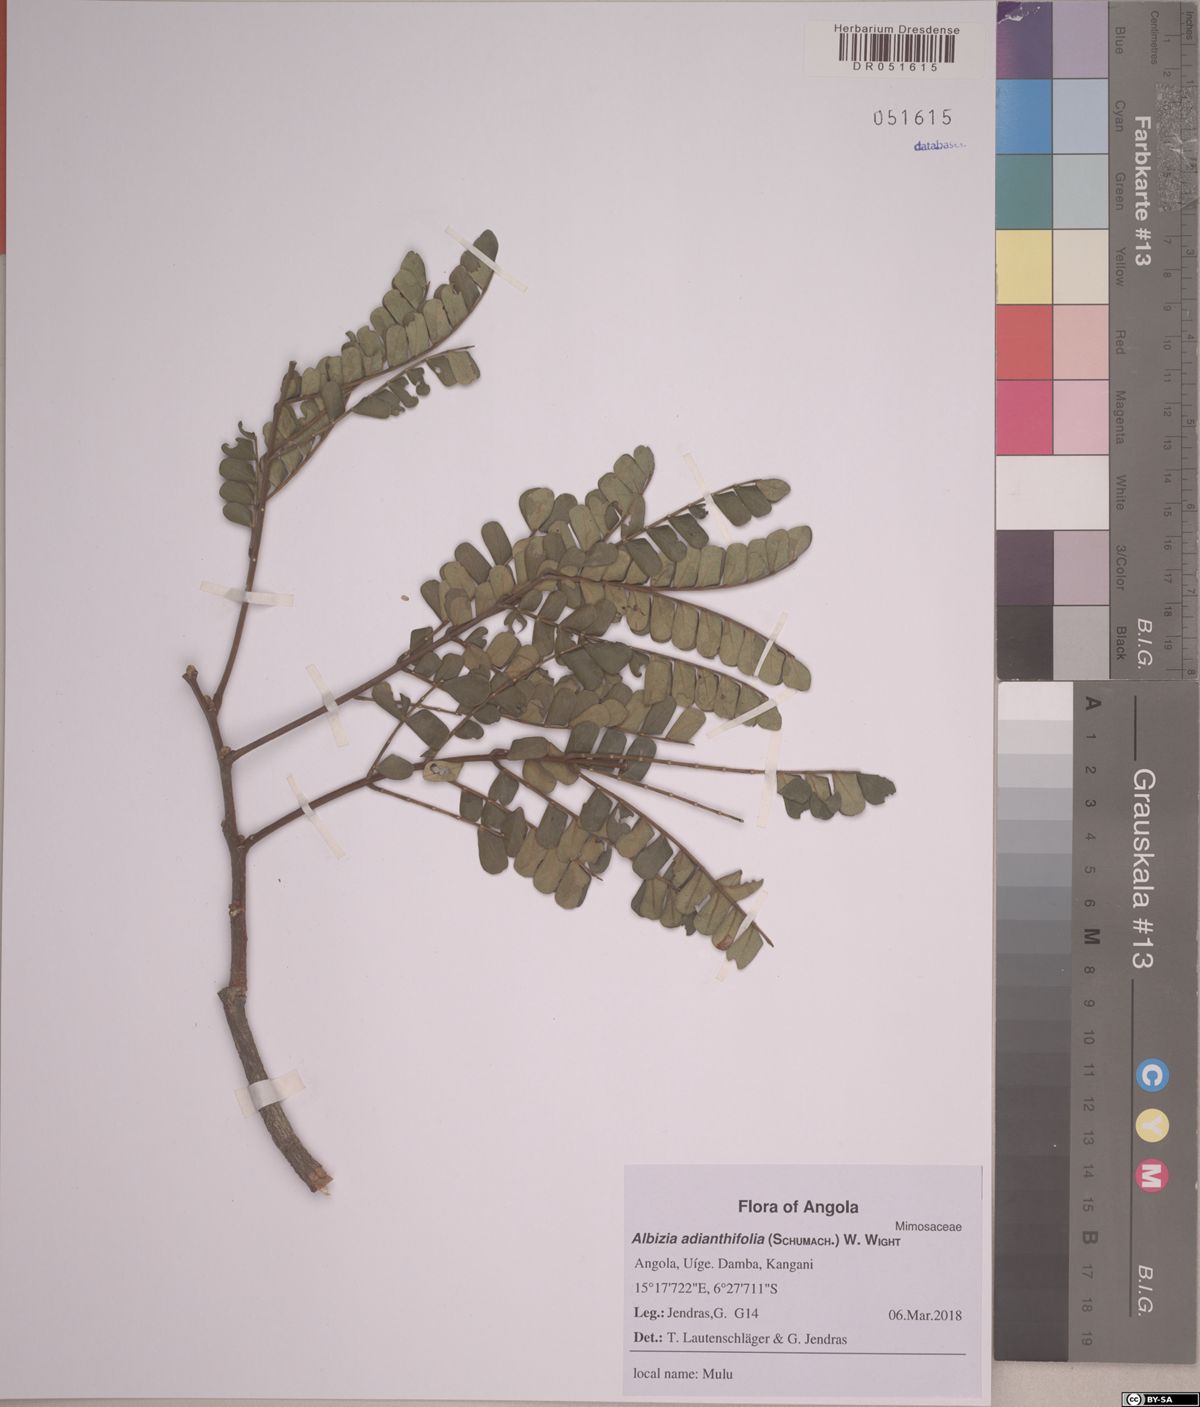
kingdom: Plantae
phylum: Tracheophyta
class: Magnoliopsida
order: Fabales
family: Fabaceae
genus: Albizia
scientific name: Albizia adianthifolia
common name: West african albizia
